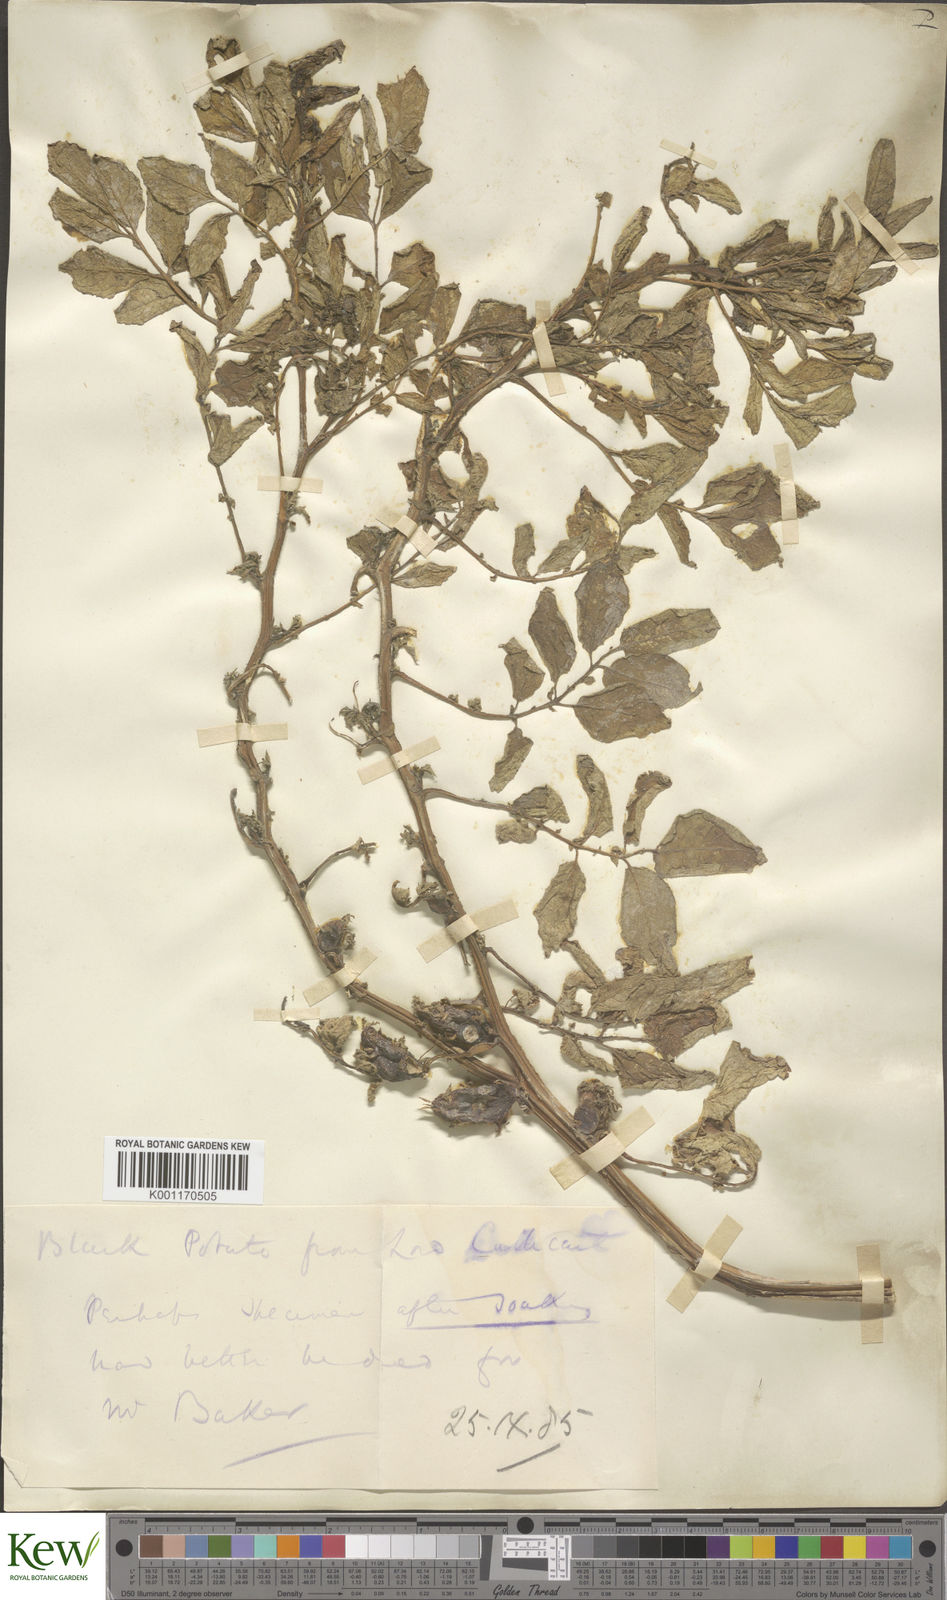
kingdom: Plantae
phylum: Tracheophyta
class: Magnoliopsida
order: Solanales
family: Solanaceae
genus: Solanum
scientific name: Solanum tuberosum
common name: Potato
